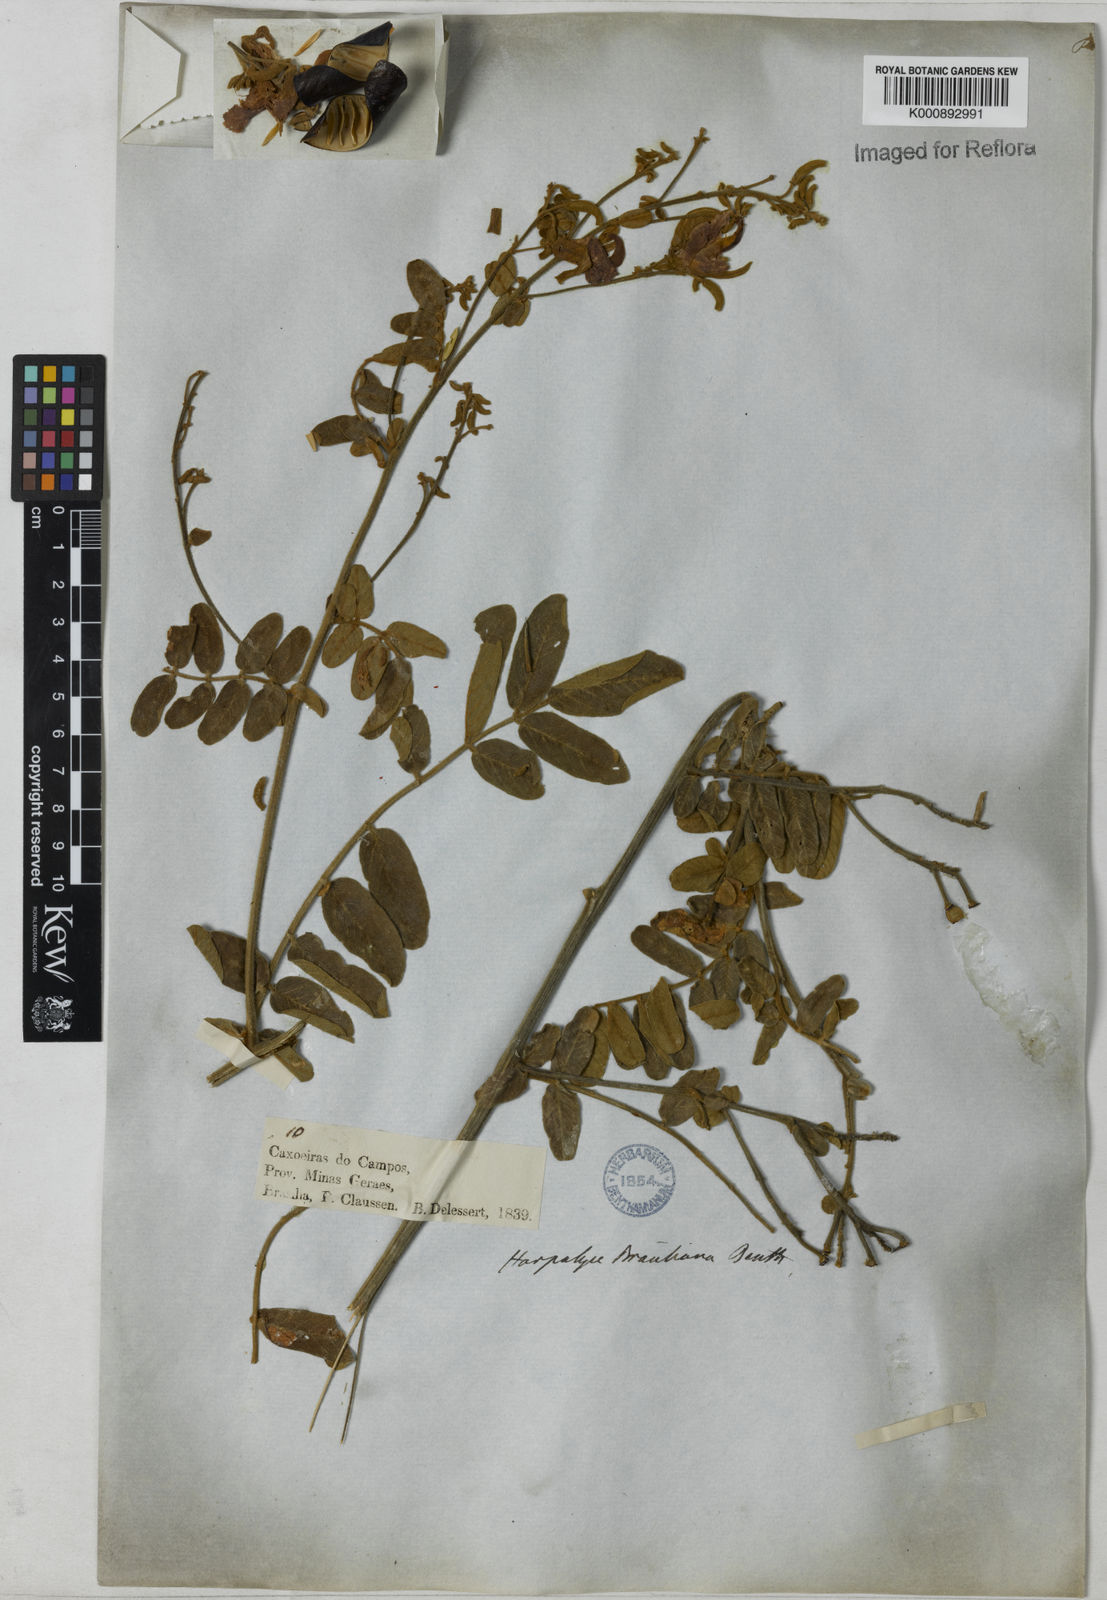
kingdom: Plantae
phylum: Tracheophyta
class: Magnoliopsida
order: Fabales
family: Fabaceae
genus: Harpalyce
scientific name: Harpalyce brasiliana
